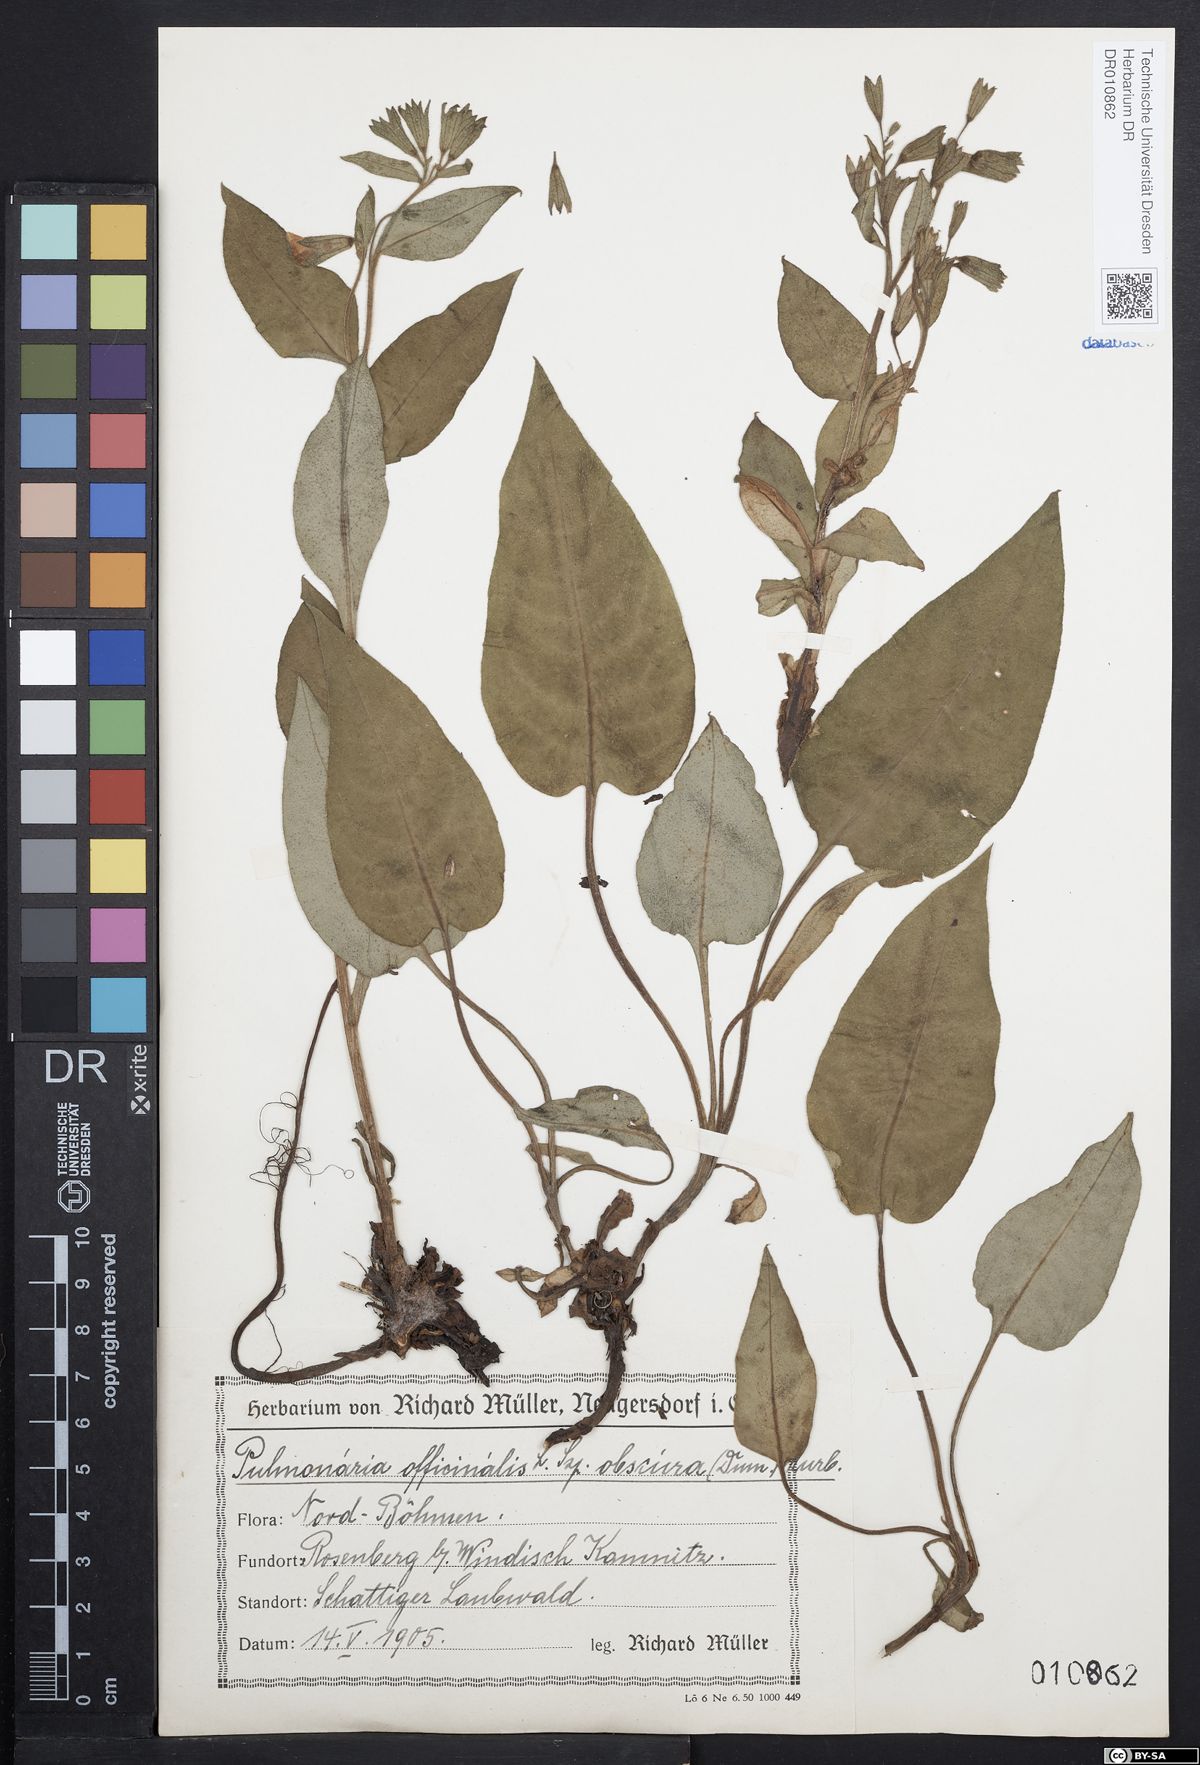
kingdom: Plantae
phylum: Tracheophyta
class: Magnoliopsida
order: Boraginales
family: Boraginaceae
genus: Pulmonaria
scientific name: Pulmonaria obscura
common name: Suffolk lungwort
